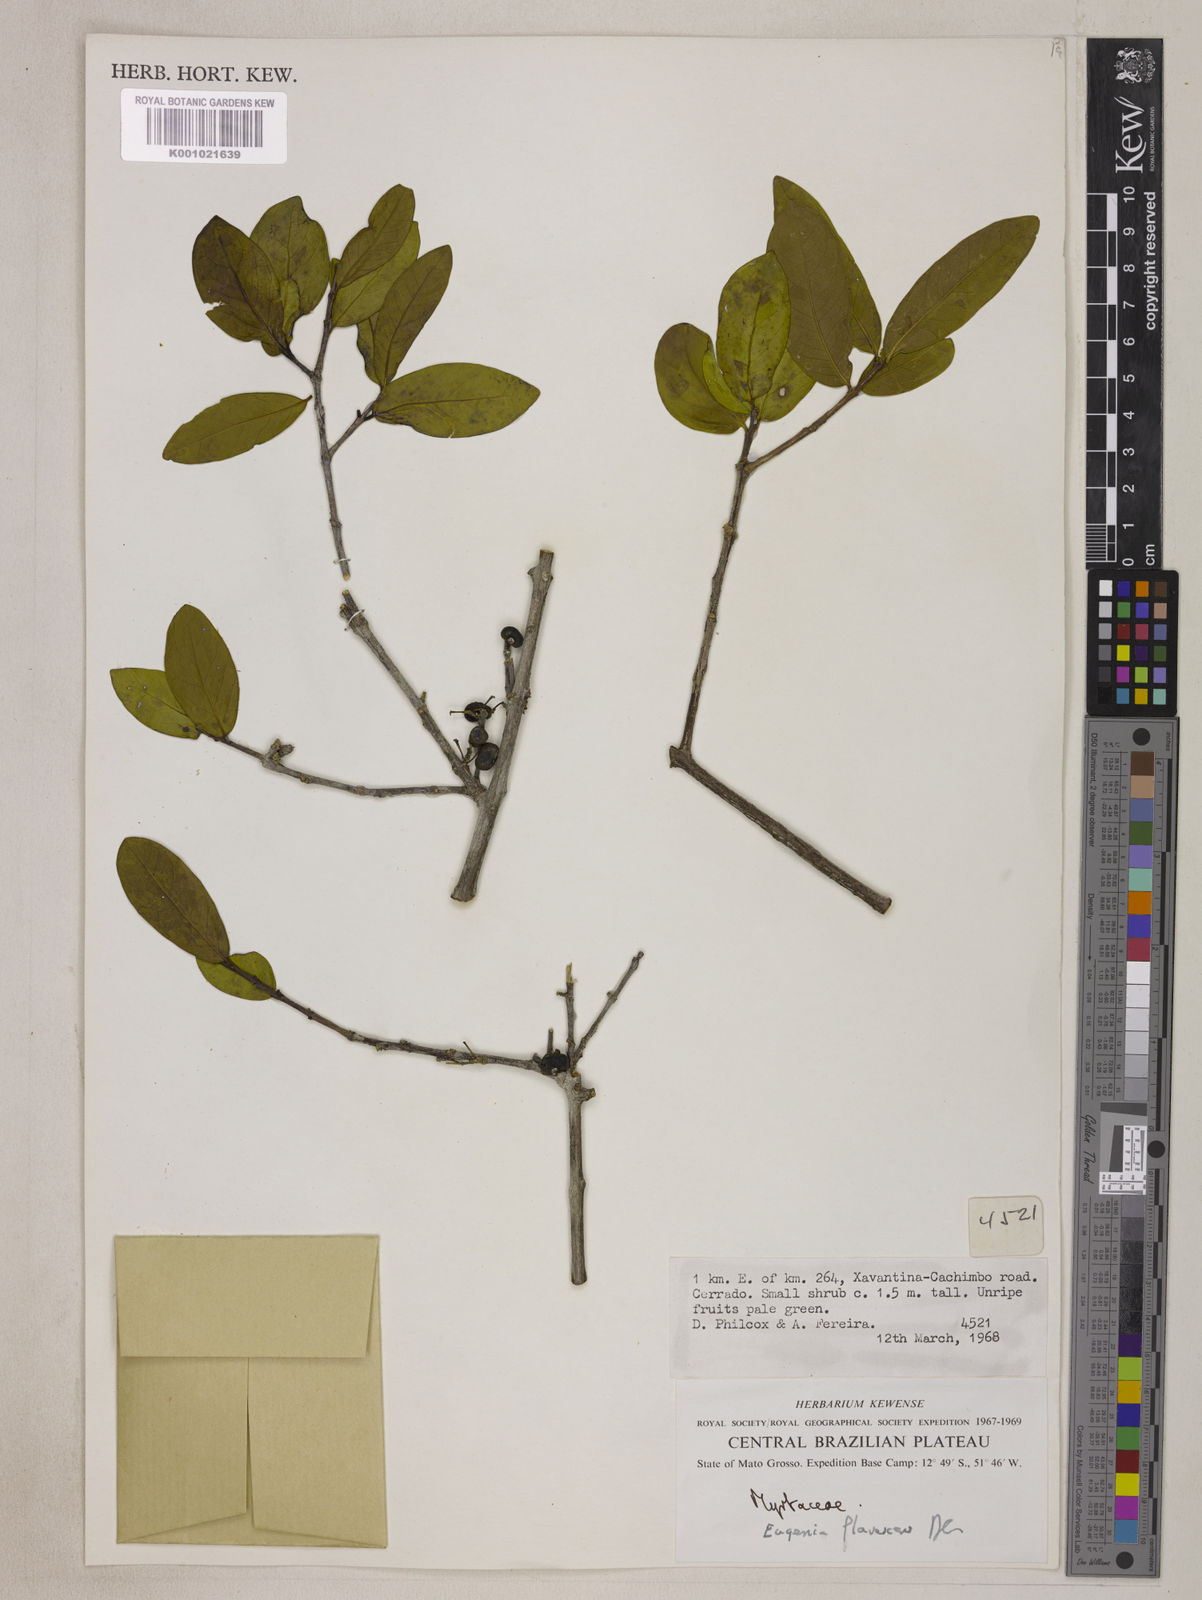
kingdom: Plantae
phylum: Tracheophyta
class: Magnoliopsida
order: Myrtales
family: Myrtaceae
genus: Eugenia
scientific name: Eugenia flavescens
